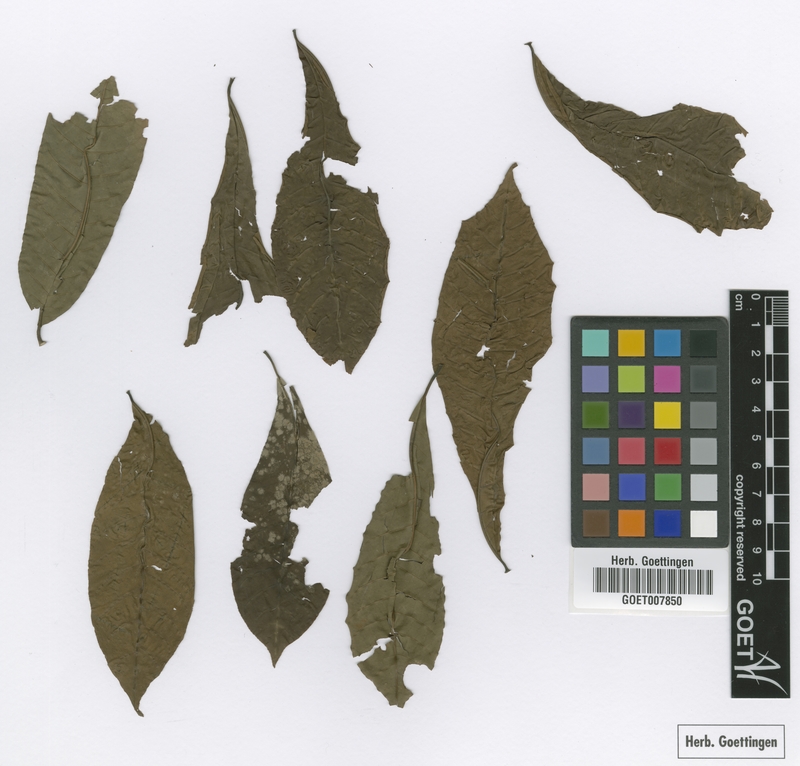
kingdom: Plantae
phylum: Tracheophyta
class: Magnoliopsida
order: Sapindales
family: Meliaceae
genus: Trichilia
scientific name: Trichilia monadelpha
